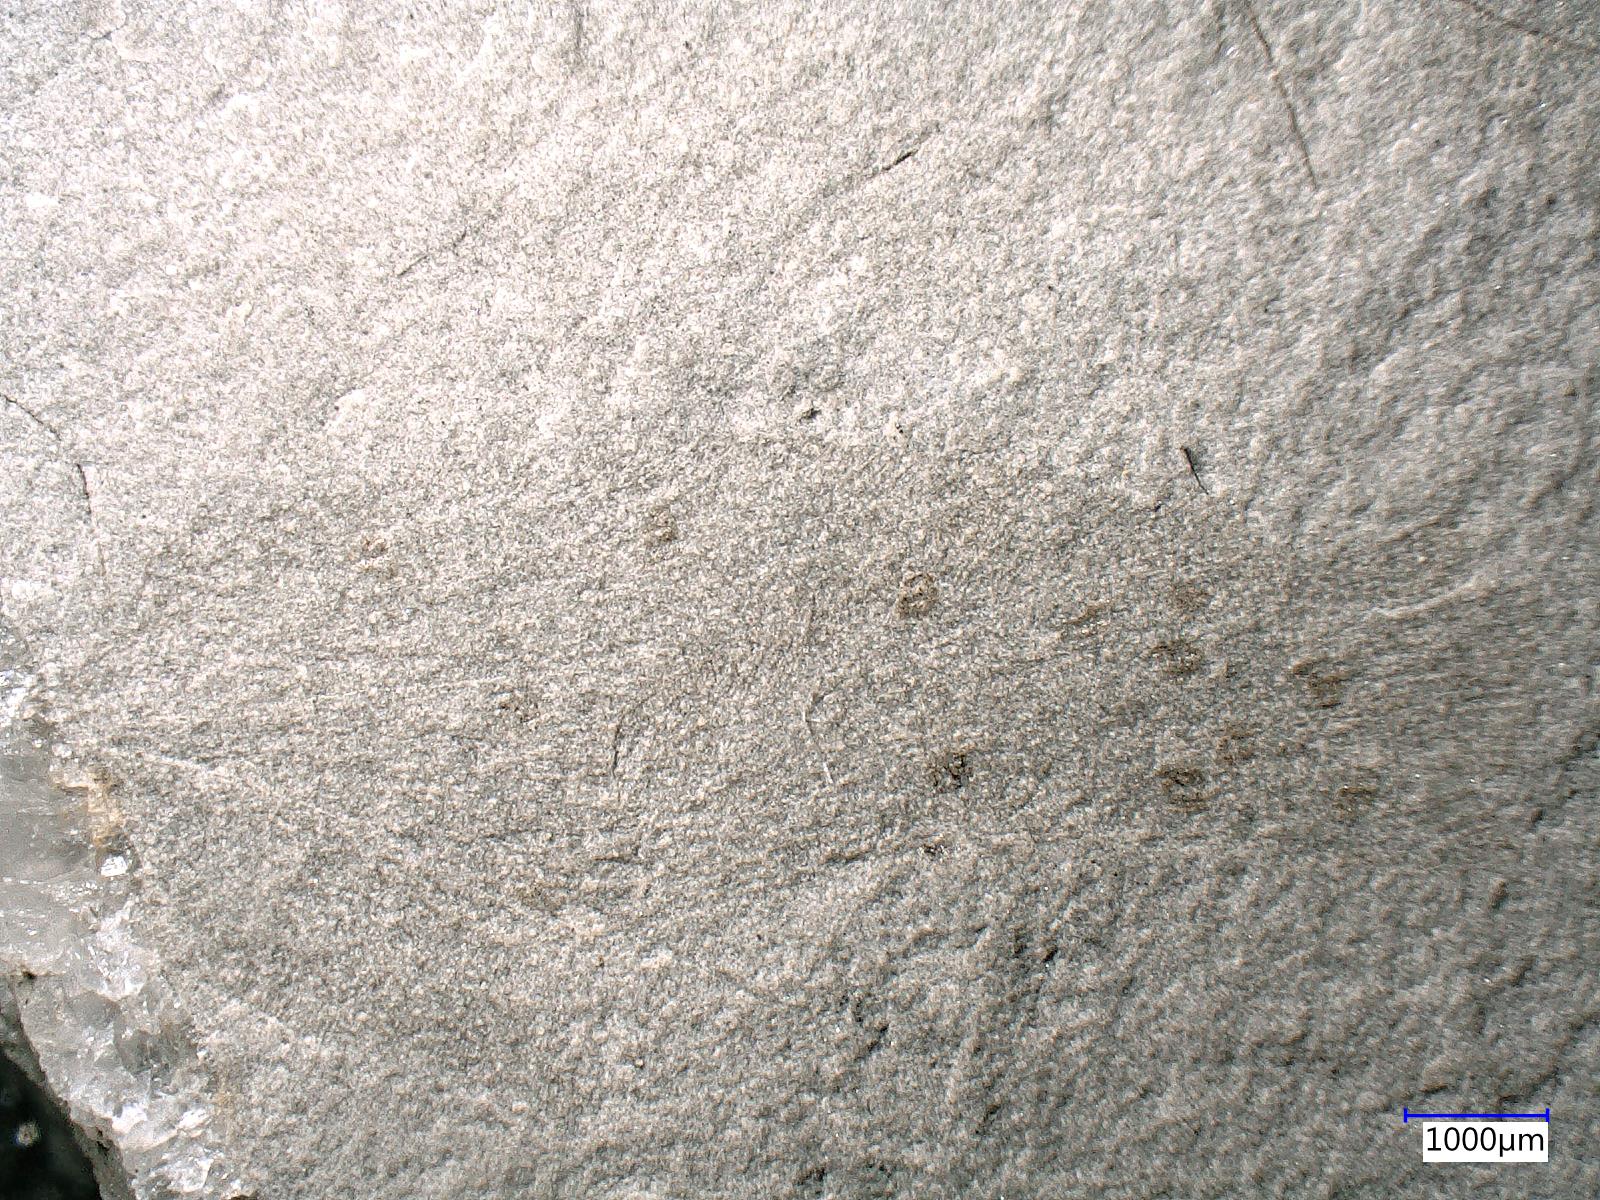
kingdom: Animalia
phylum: Arthropoda
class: Insecta
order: Mecoptera
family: Orthophlebiidae
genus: Orthophlebia
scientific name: Orthophlebia
